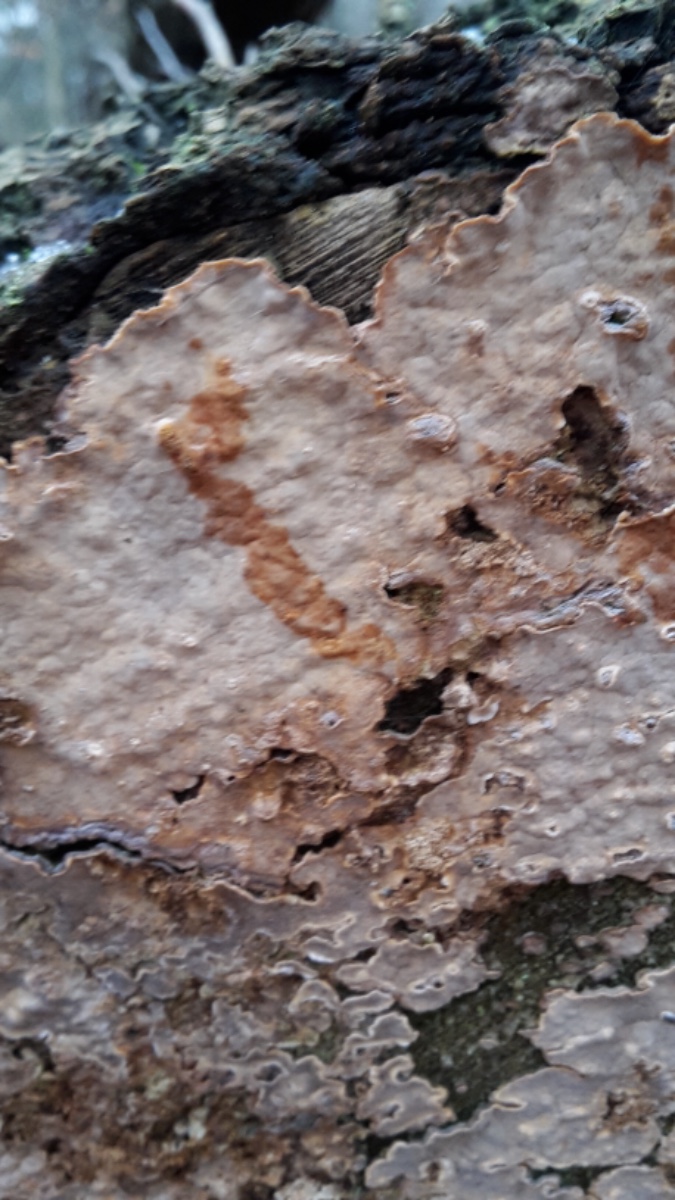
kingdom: Fungi
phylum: Basidiomycota
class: Agaricomycetes
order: Russulales
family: Stereaceae
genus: Stereum
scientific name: Stereum rugosum
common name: rynket lædersvamp
